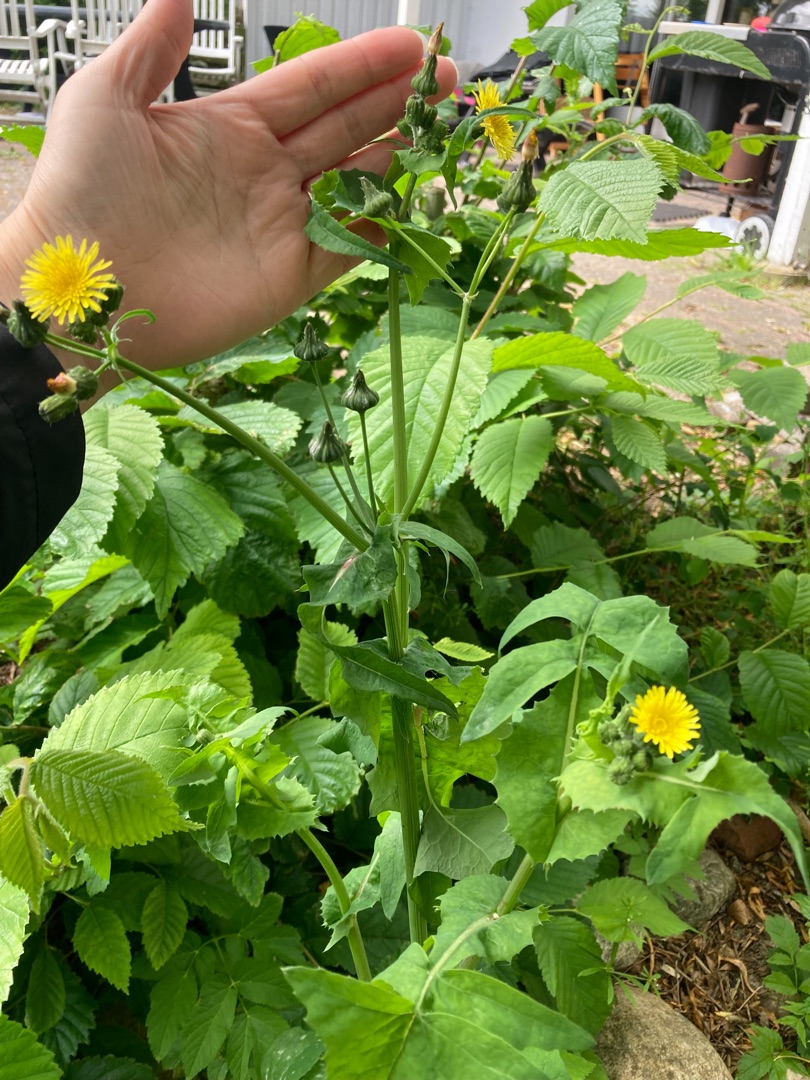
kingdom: Plantae
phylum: Tracheophyta
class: Magnoliopsida
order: Asterales
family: Asteraceae
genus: Sonchus
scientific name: Sonchus oleraceus
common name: Almindelig svinemælk
